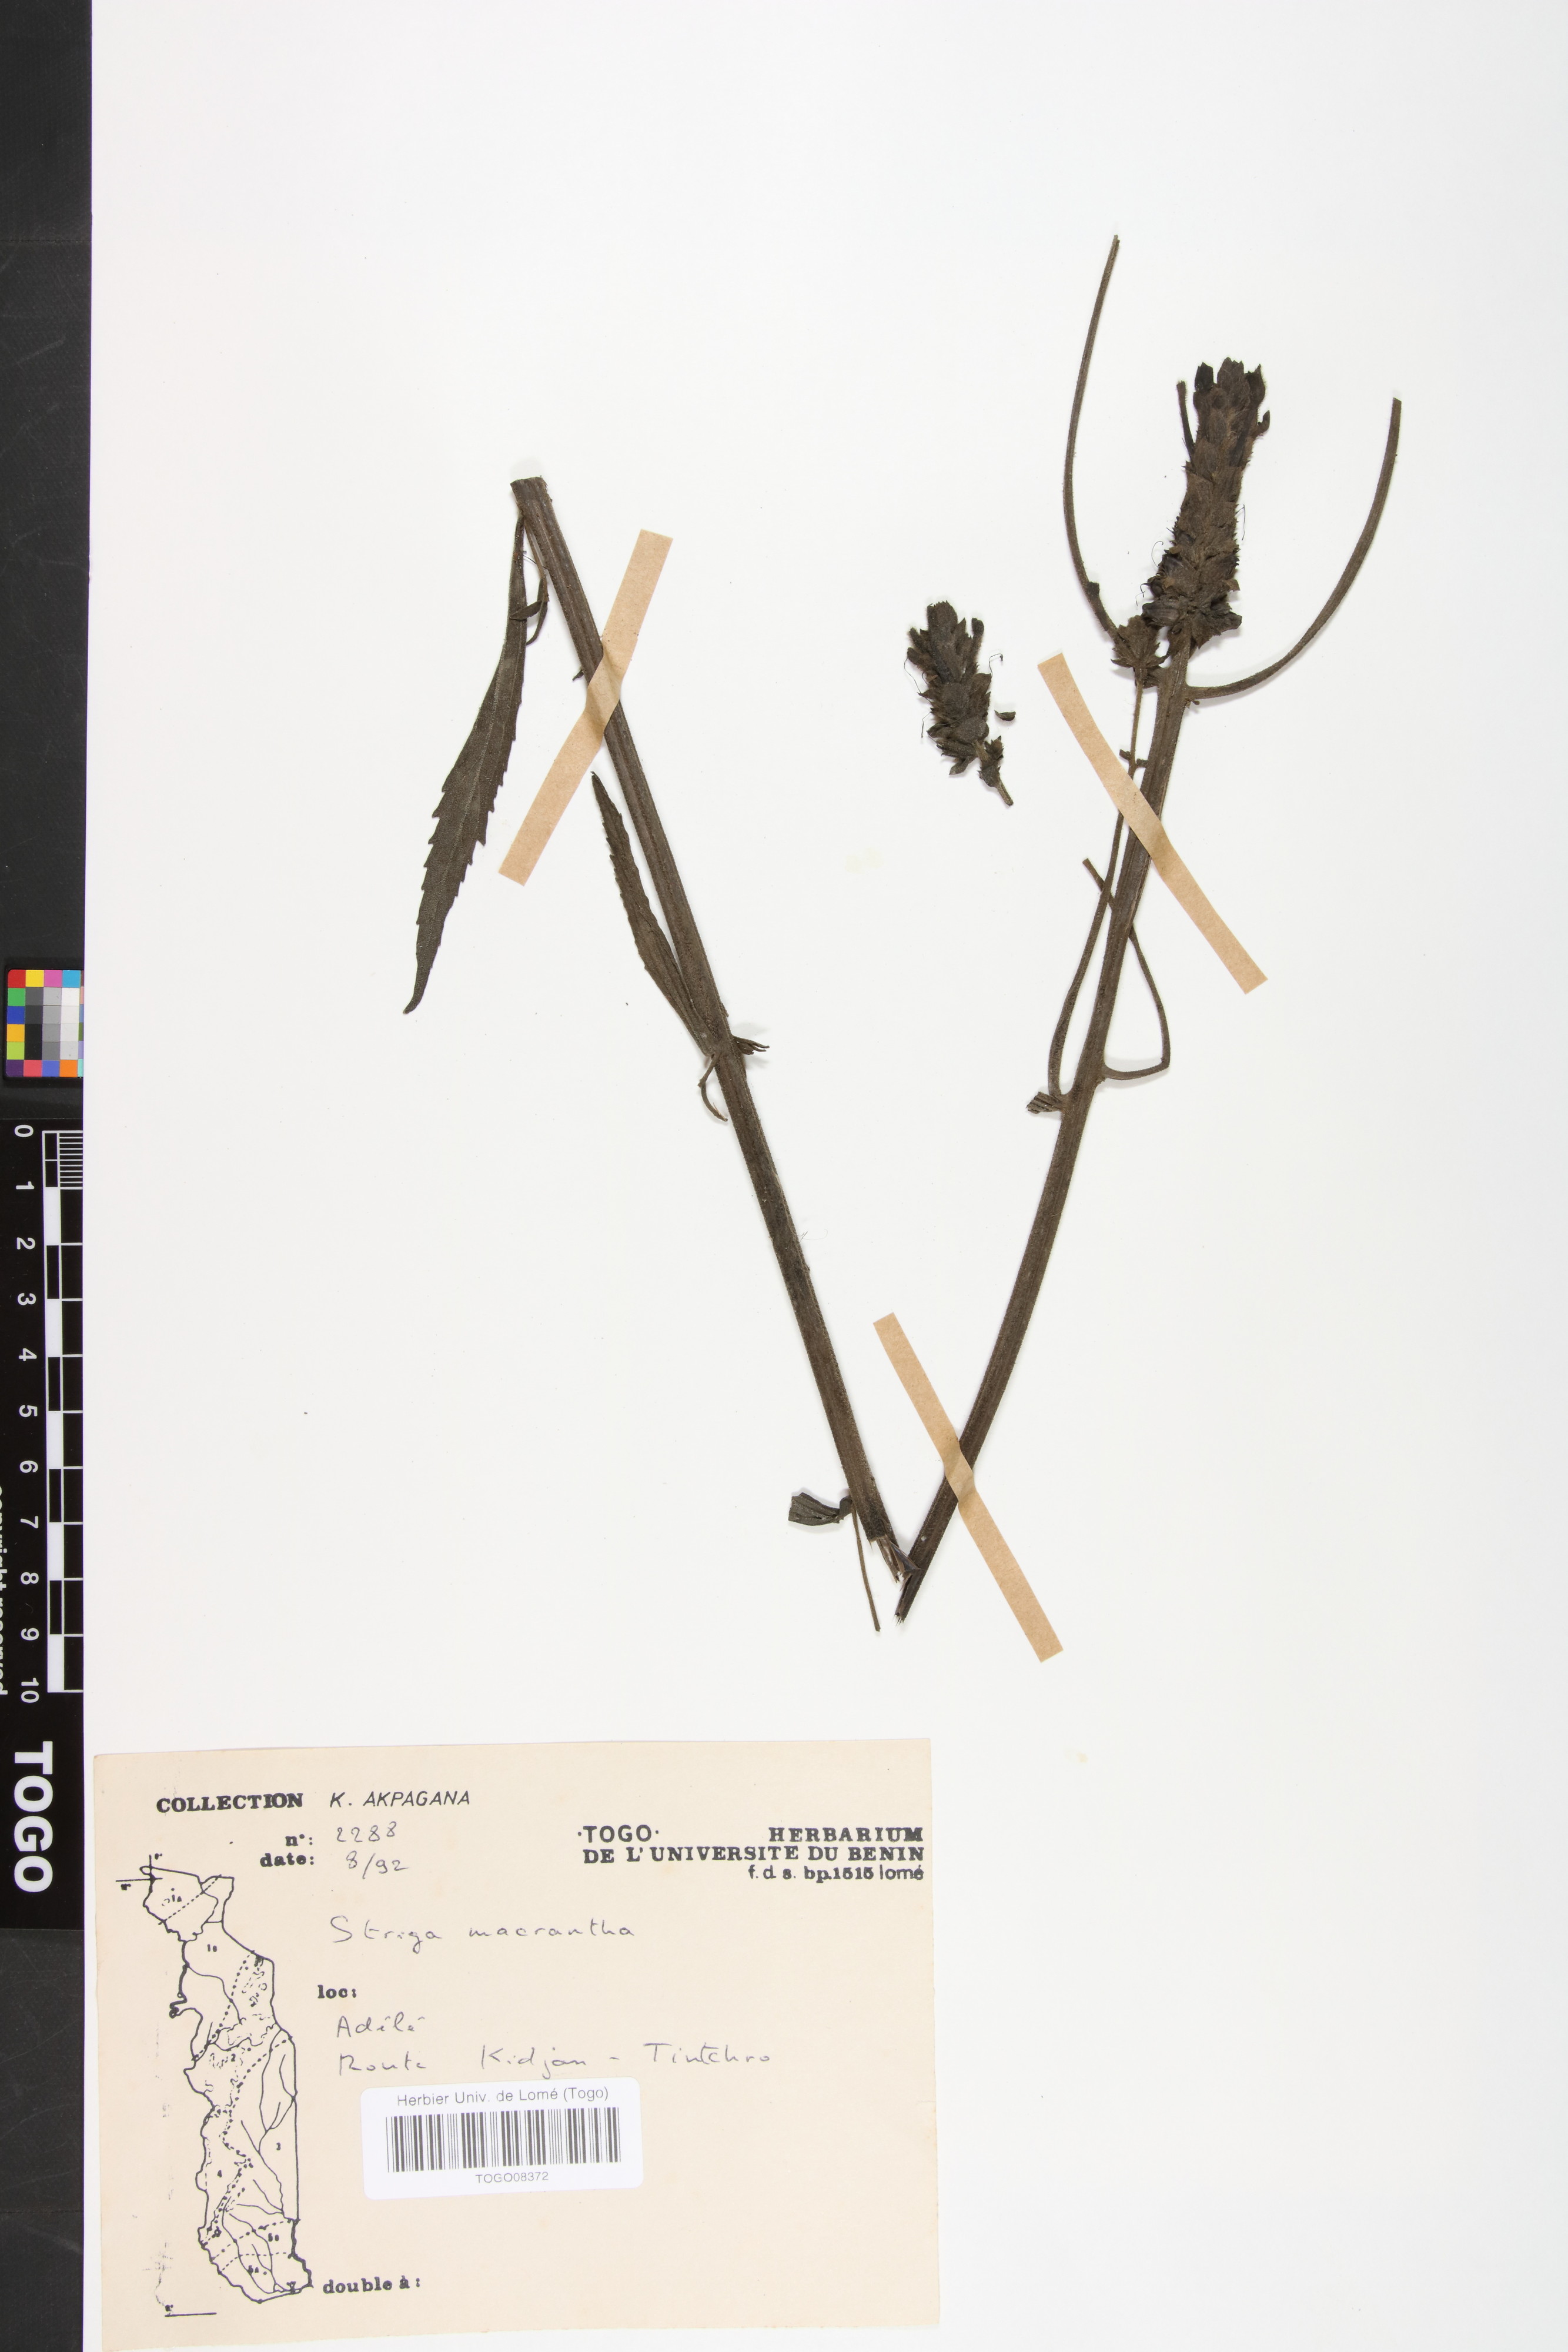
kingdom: Plantae
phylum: Tracheophyta
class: Magnoliopsida
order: Lamiales
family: Orobanchaceae
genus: Striga
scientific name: Striga macrantha
